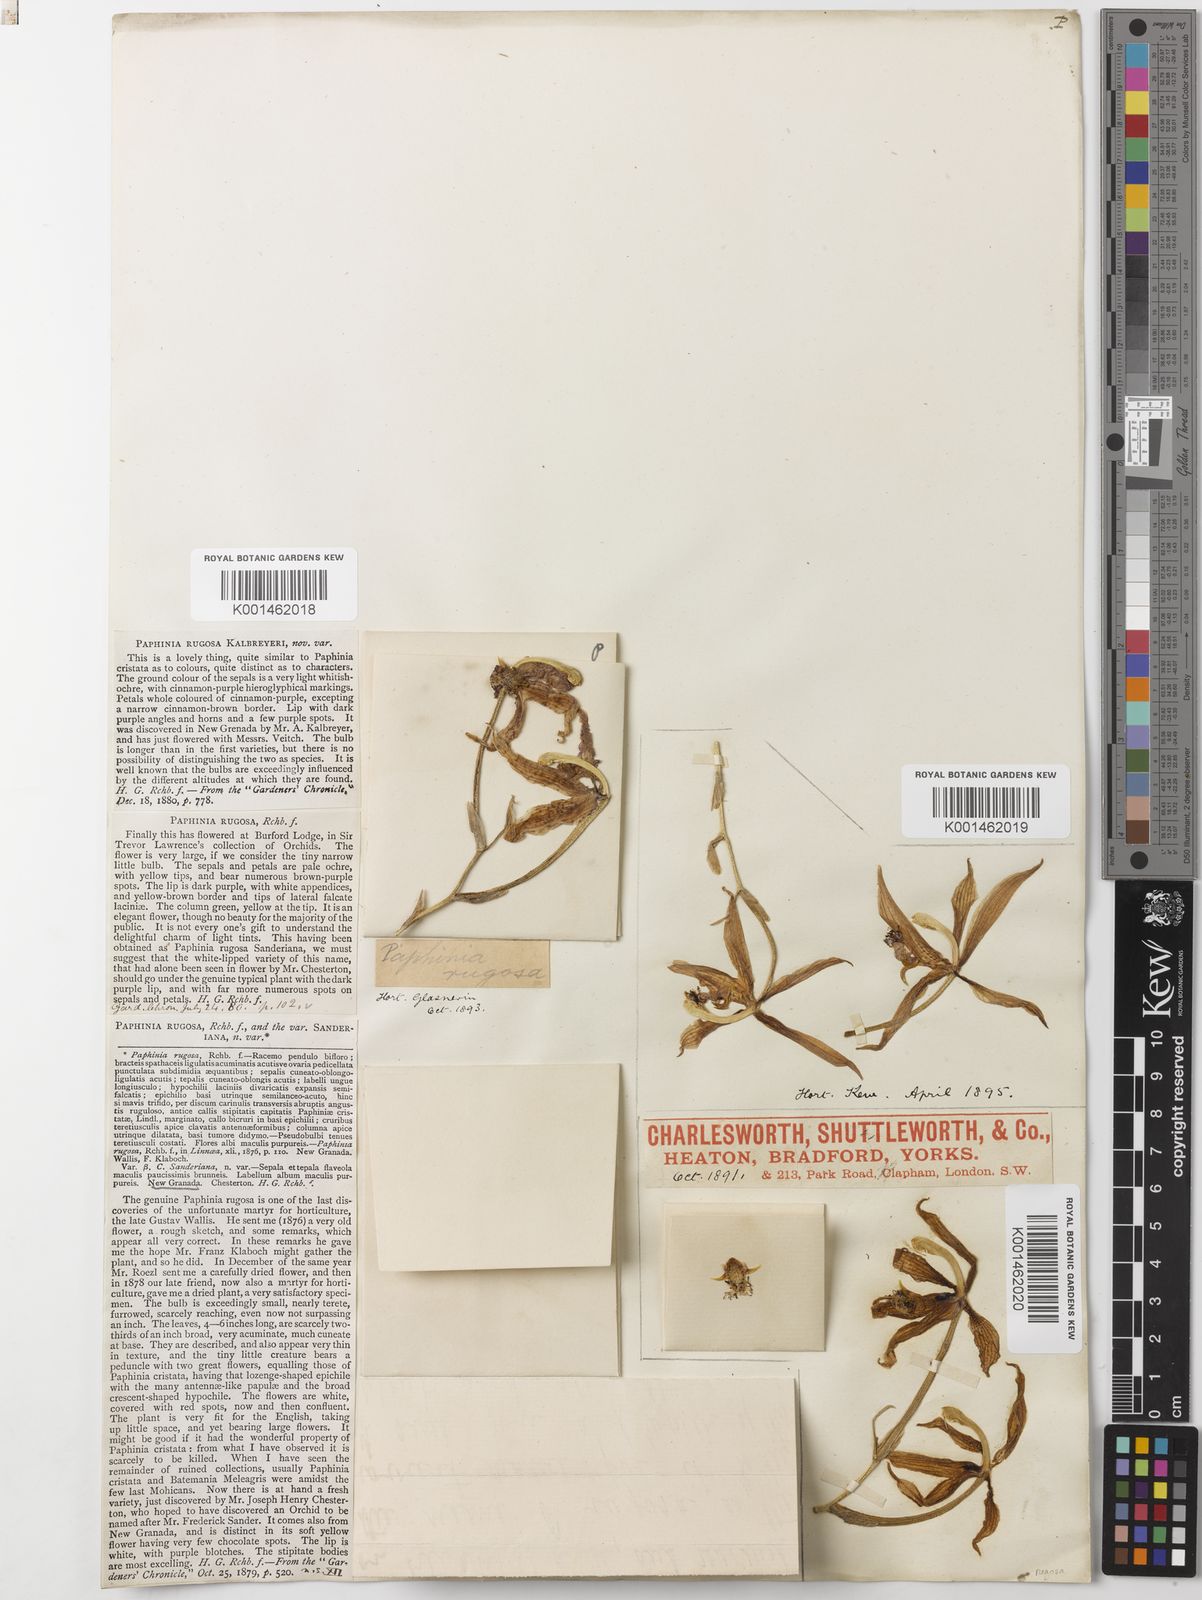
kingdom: Plantae
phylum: Tracheophyta
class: Liliopsida
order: Asparagales
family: Orchidaceae
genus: Paphinia
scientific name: Paphinia rugosa
